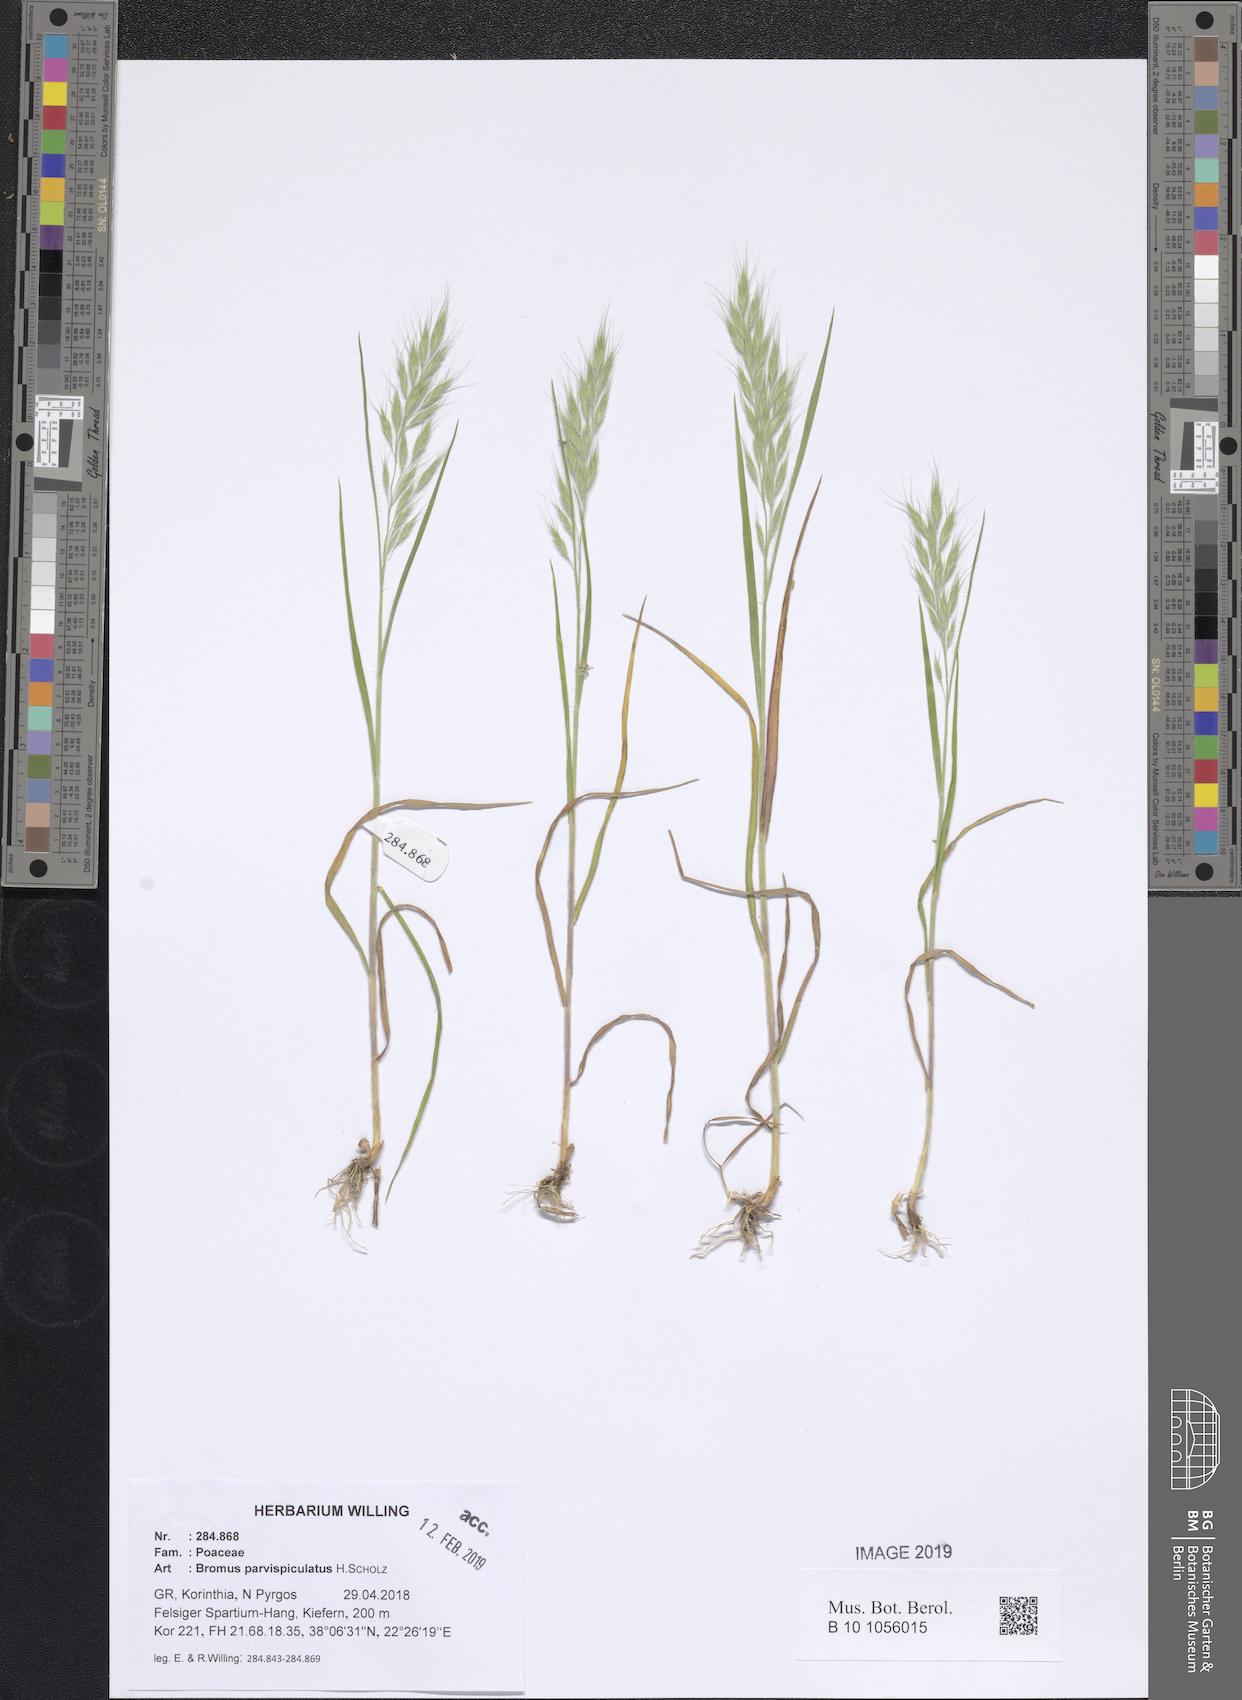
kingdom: Plantae
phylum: Tracheophyta
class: Liliopsida
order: Poales
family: Poaceae
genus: Bromus
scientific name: Bromus hordeaceus
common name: Soft brome
